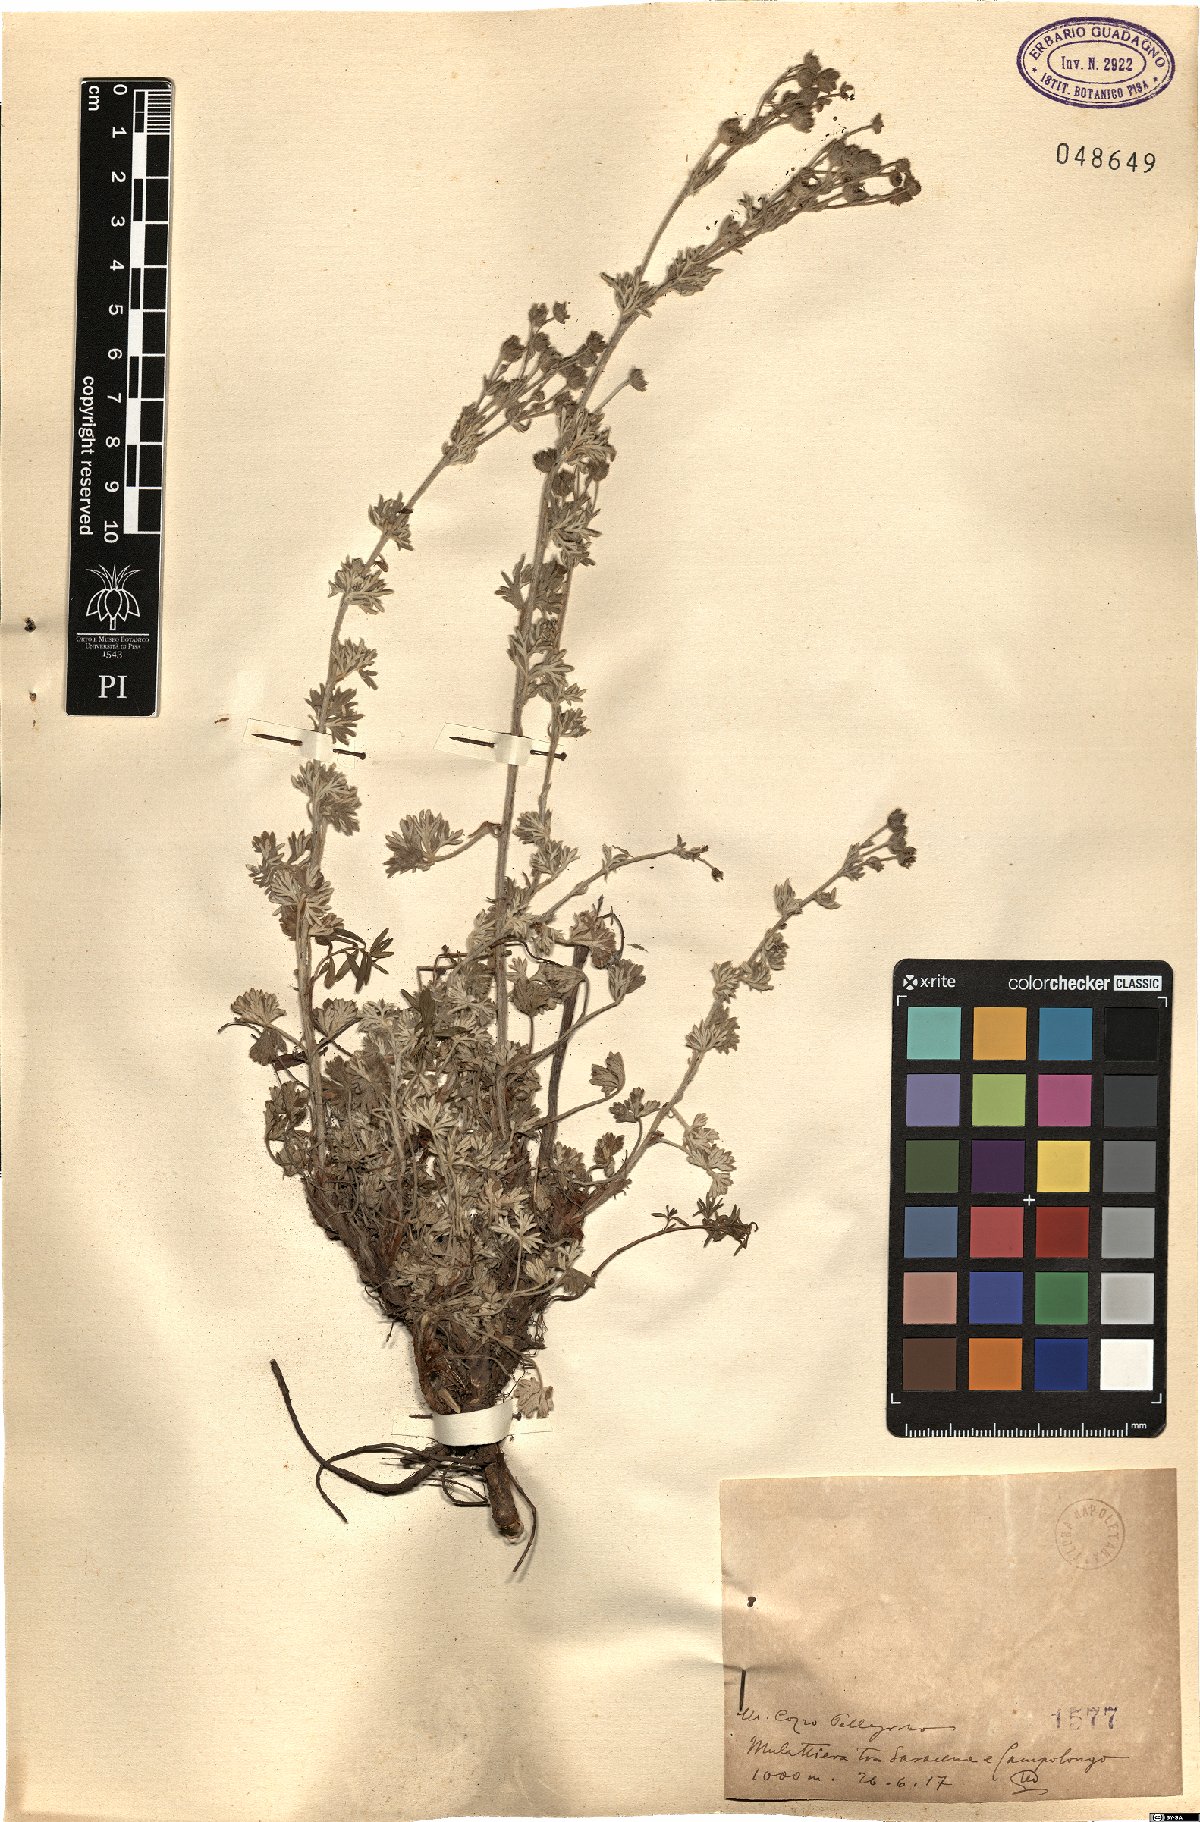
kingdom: Plantae
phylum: Tracheophyta
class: Magnoliopsida
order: Rosales
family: Rosaceae
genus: Potentilla
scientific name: Potentilla
